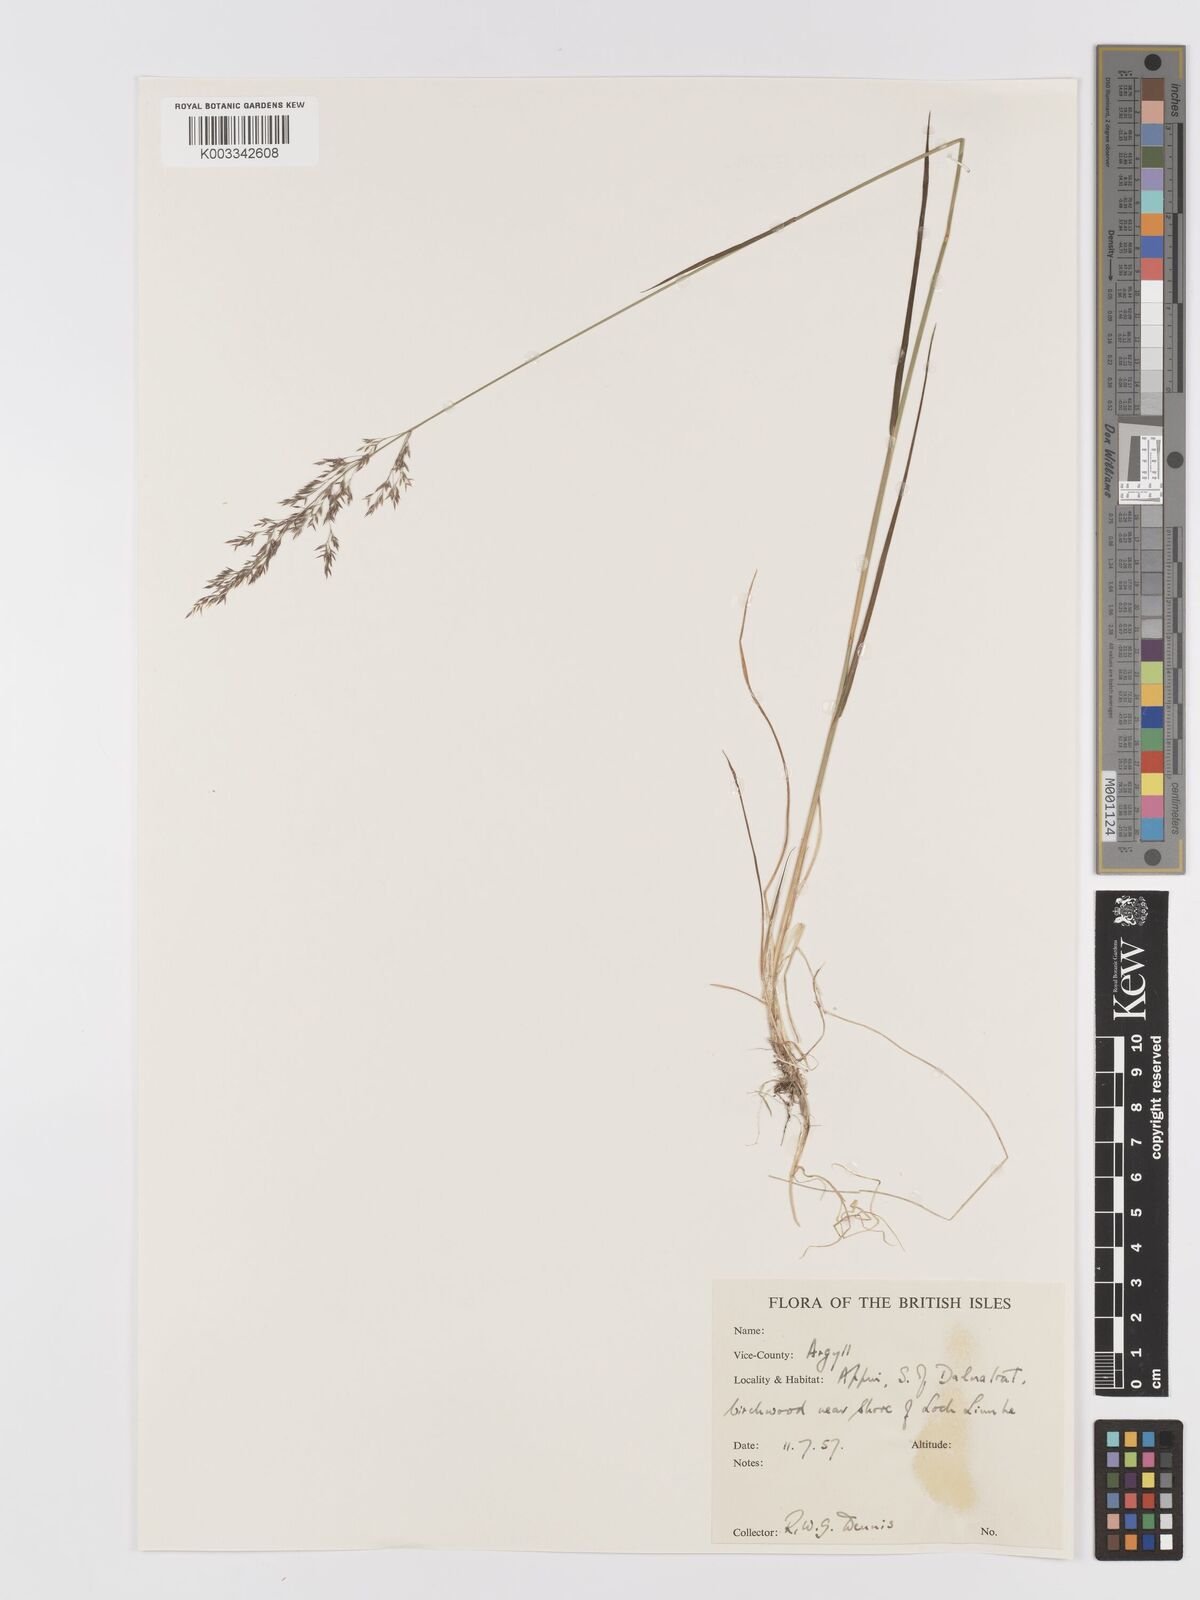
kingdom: Plantae
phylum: Tracheophyta
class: Liliopsida
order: Poales
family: Poaceae
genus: Agrostis
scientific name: Agrostis
